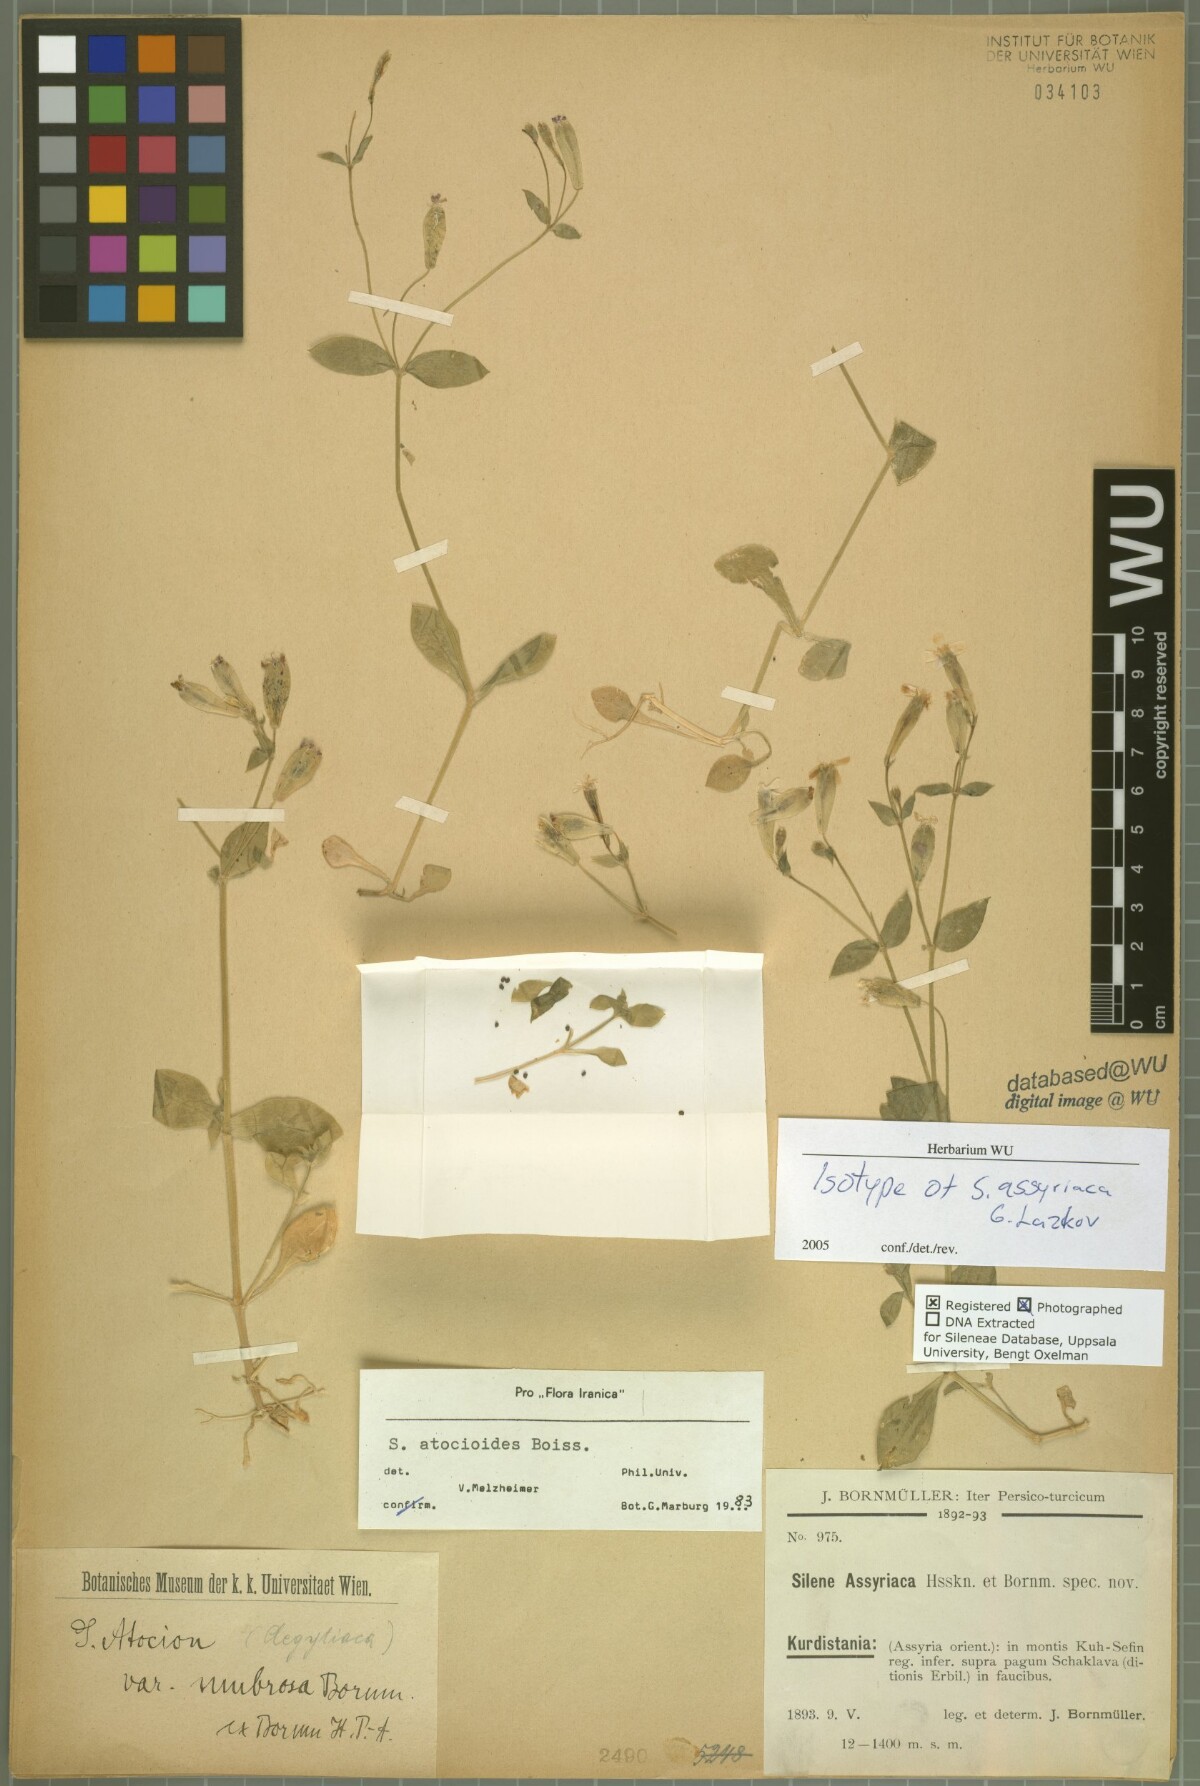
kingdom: Plantae
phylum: Tracheophyta
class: Magnoliopsida
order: Caryophyllales
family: Caryophyllaceae
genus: Silene
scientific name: Silene assyriaca
